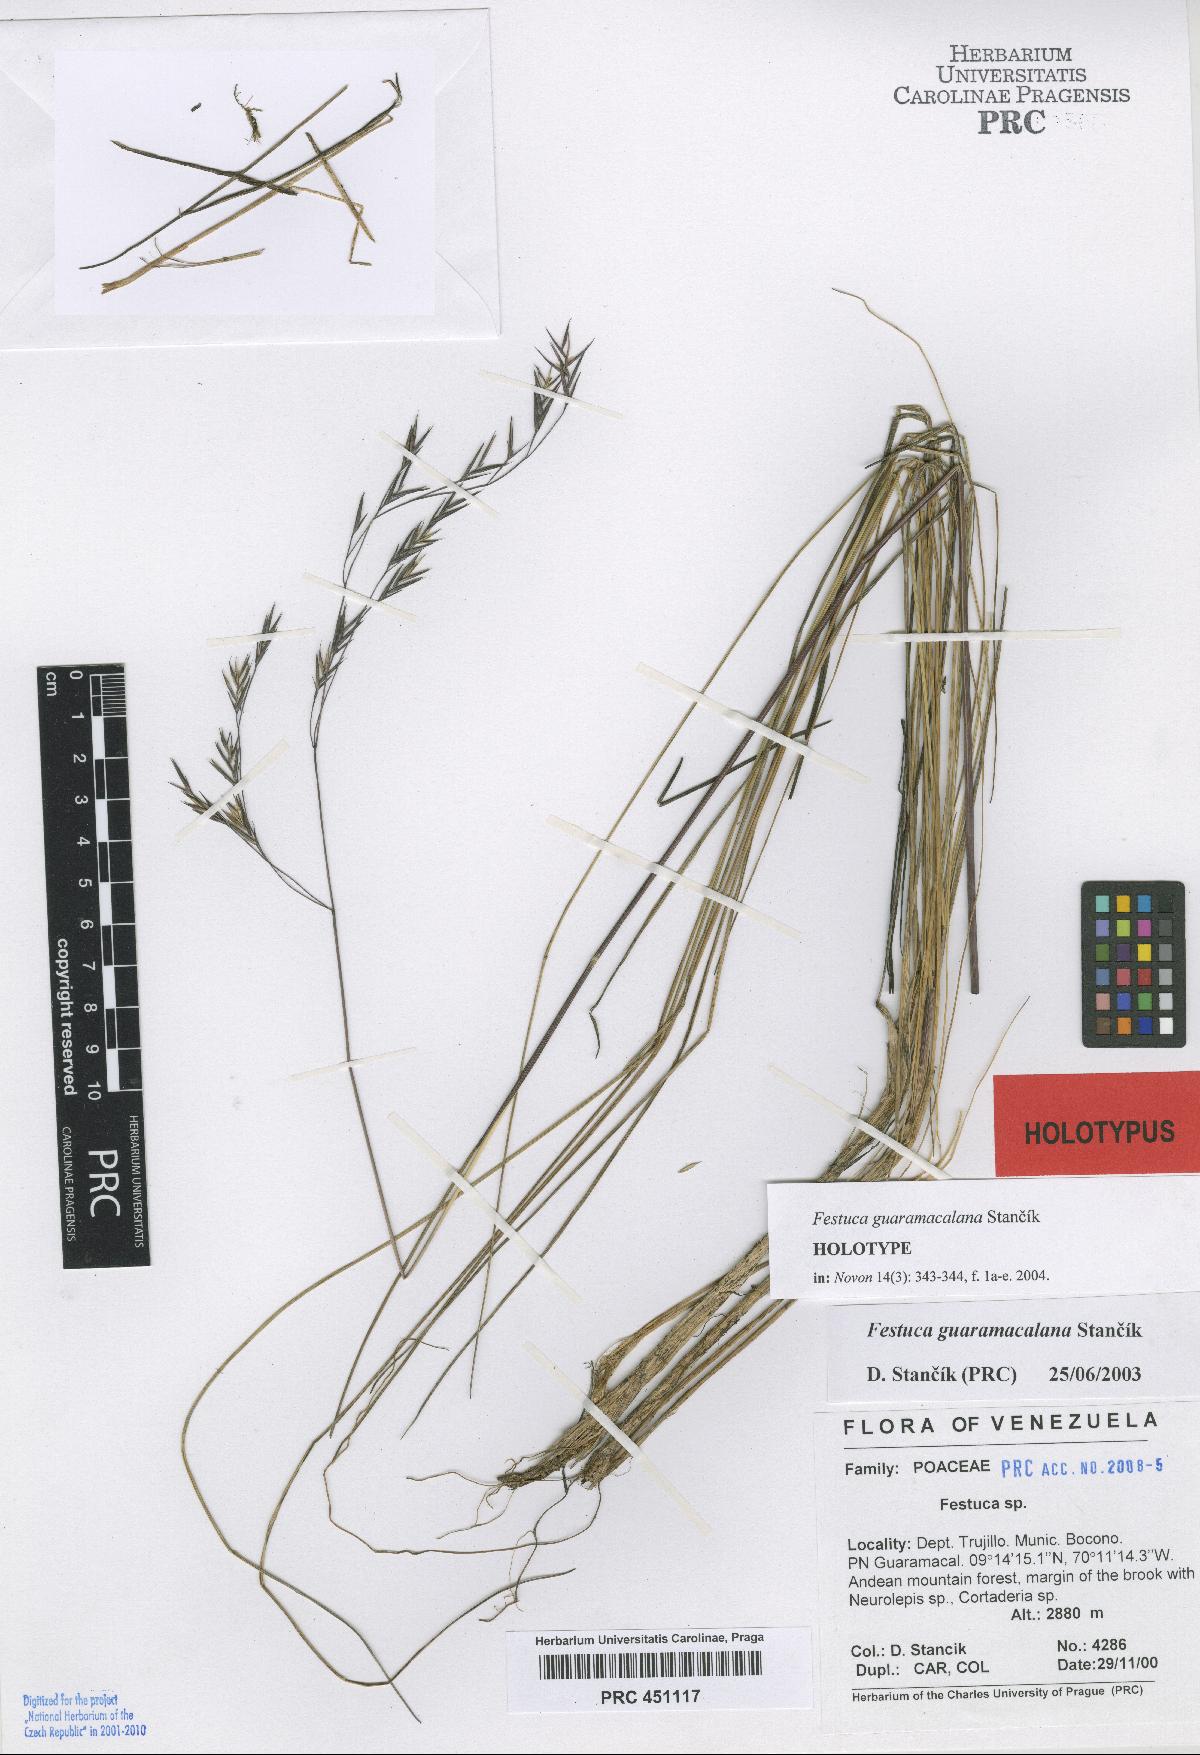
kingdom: Plantae
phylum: Tracheophyta
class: Liliopsida
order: Poales
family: Poaceae
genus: Festuca
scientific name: Festuca guaramacalana
